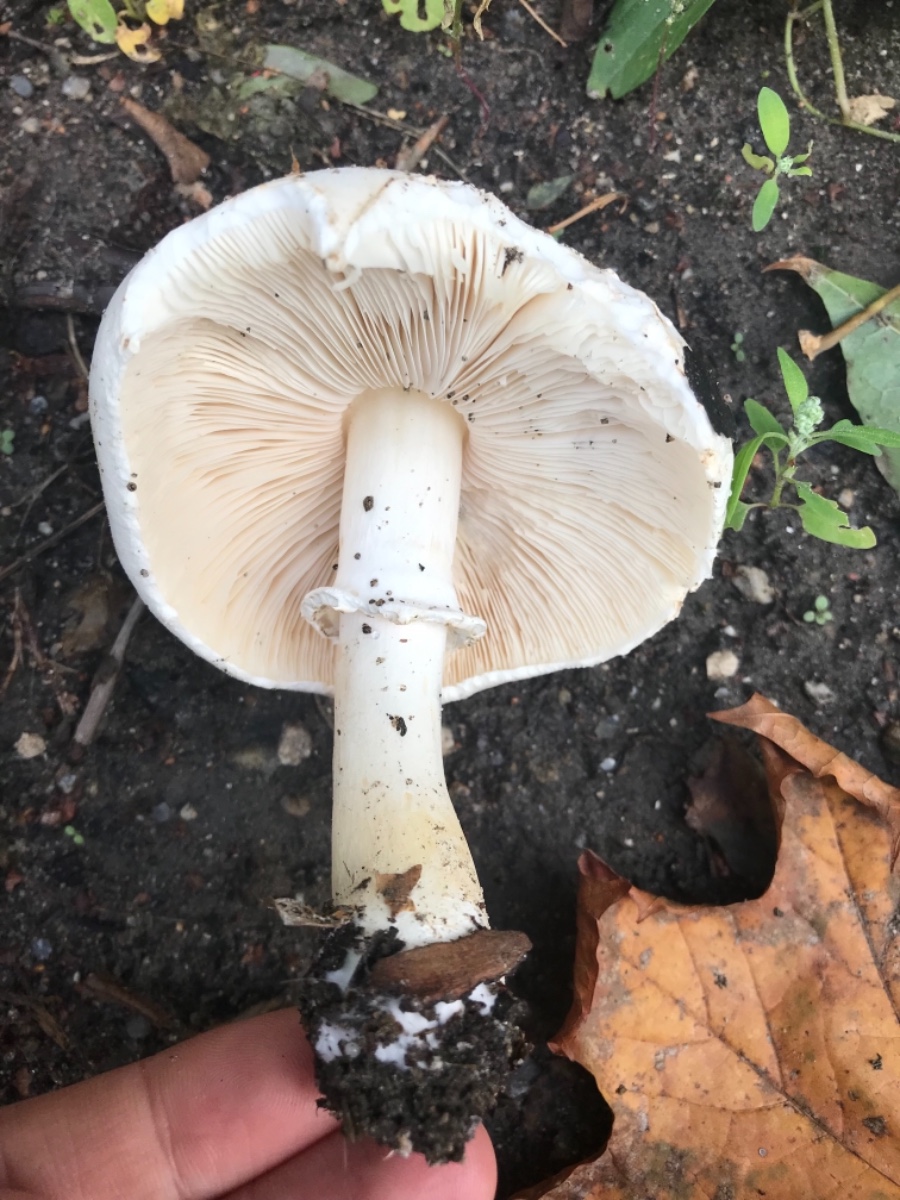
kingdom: Fungi
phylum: Basidiomycota
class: Agaricomycetes
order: Agaricales
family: Agaricaceae
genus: Leucoagaricus
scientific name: Leucoagaricus leucothites
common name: rosabladet silkehat
